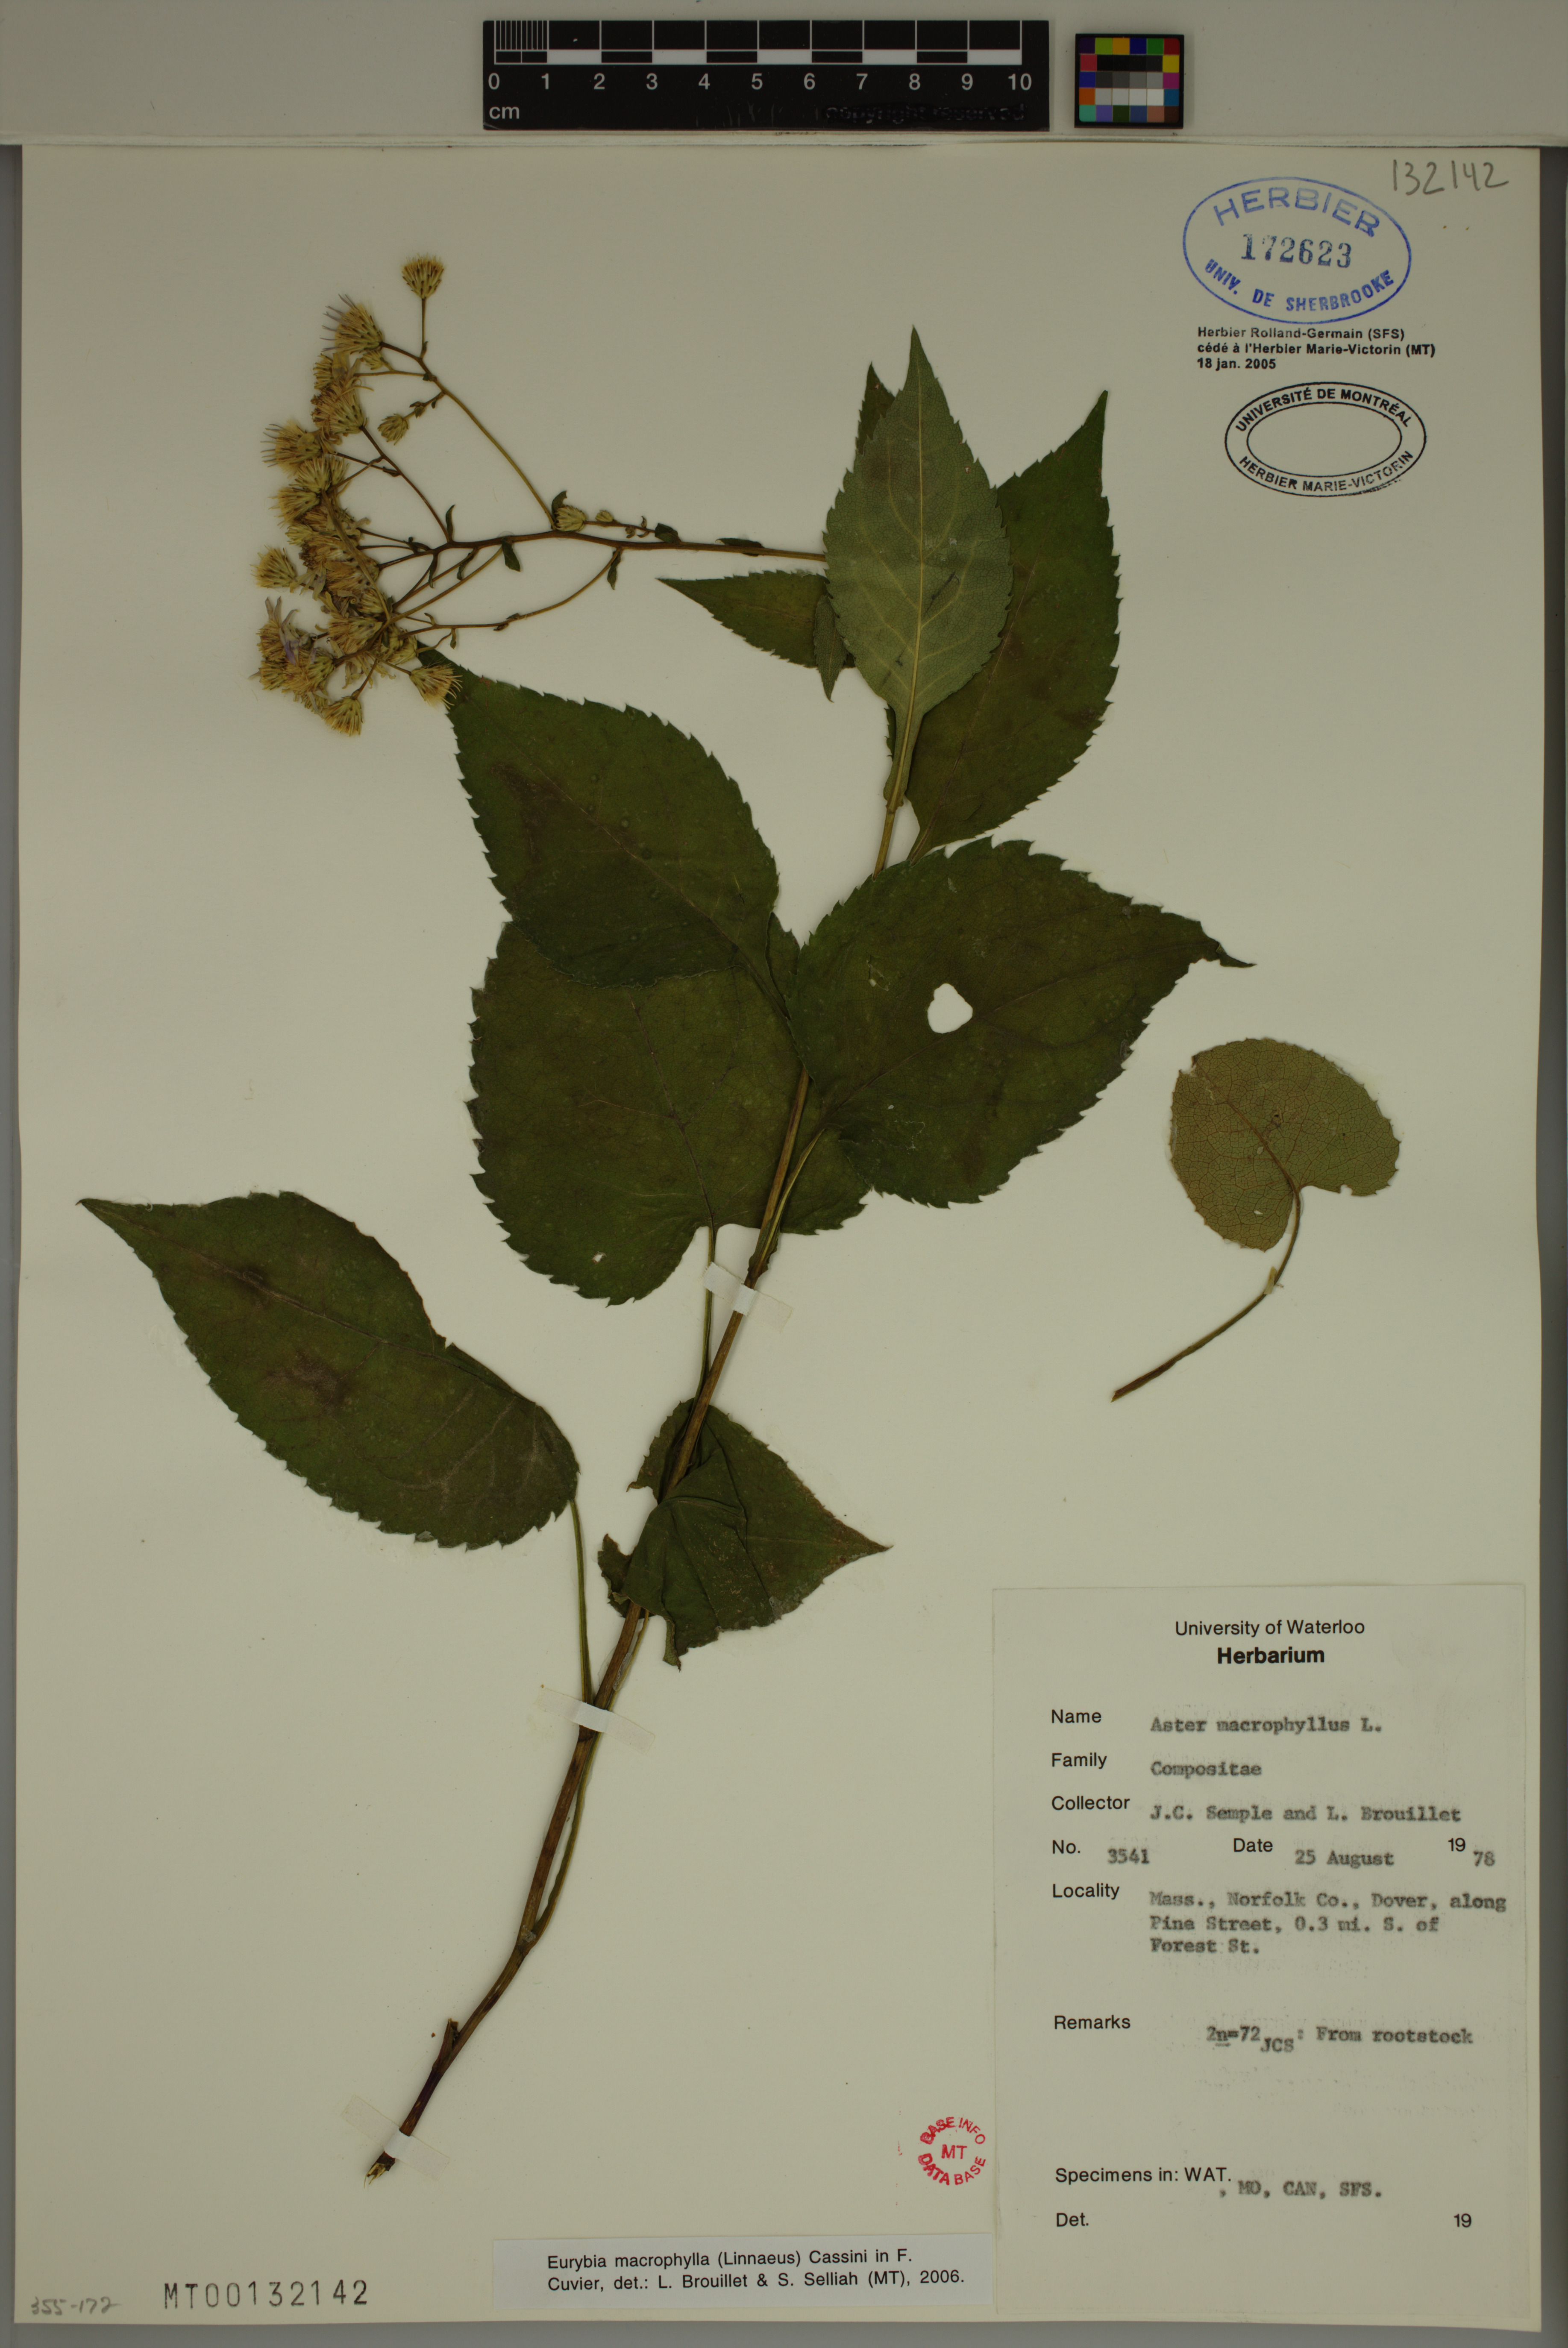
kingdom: Plantae
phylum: Tracheophyta
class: Magnoliopsida
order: Asterales
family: Asteraceae
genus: Eurybia
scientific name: Eurybia macrophylla
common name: Big-leaved aster
